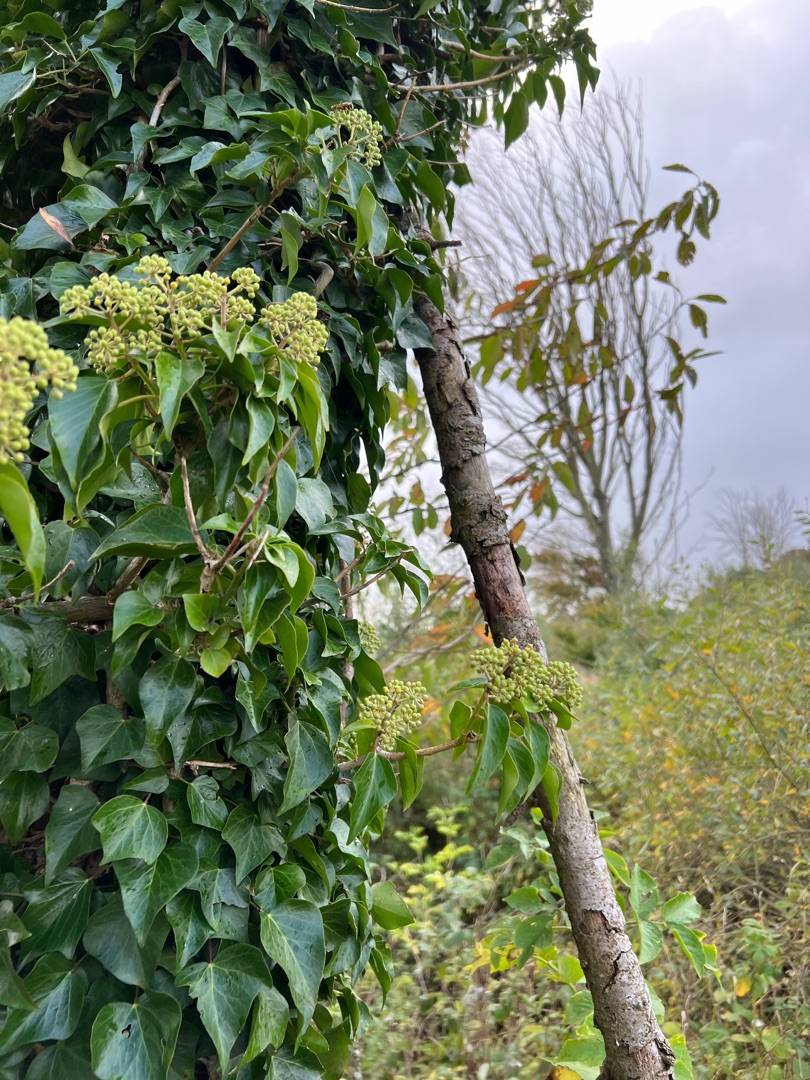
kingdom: Plantae
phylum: Tracheophyta
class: Magnoliopsida
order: Apiales
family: Araliaceae
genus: Hedera
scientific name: Hedera helix
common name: Vedbend
